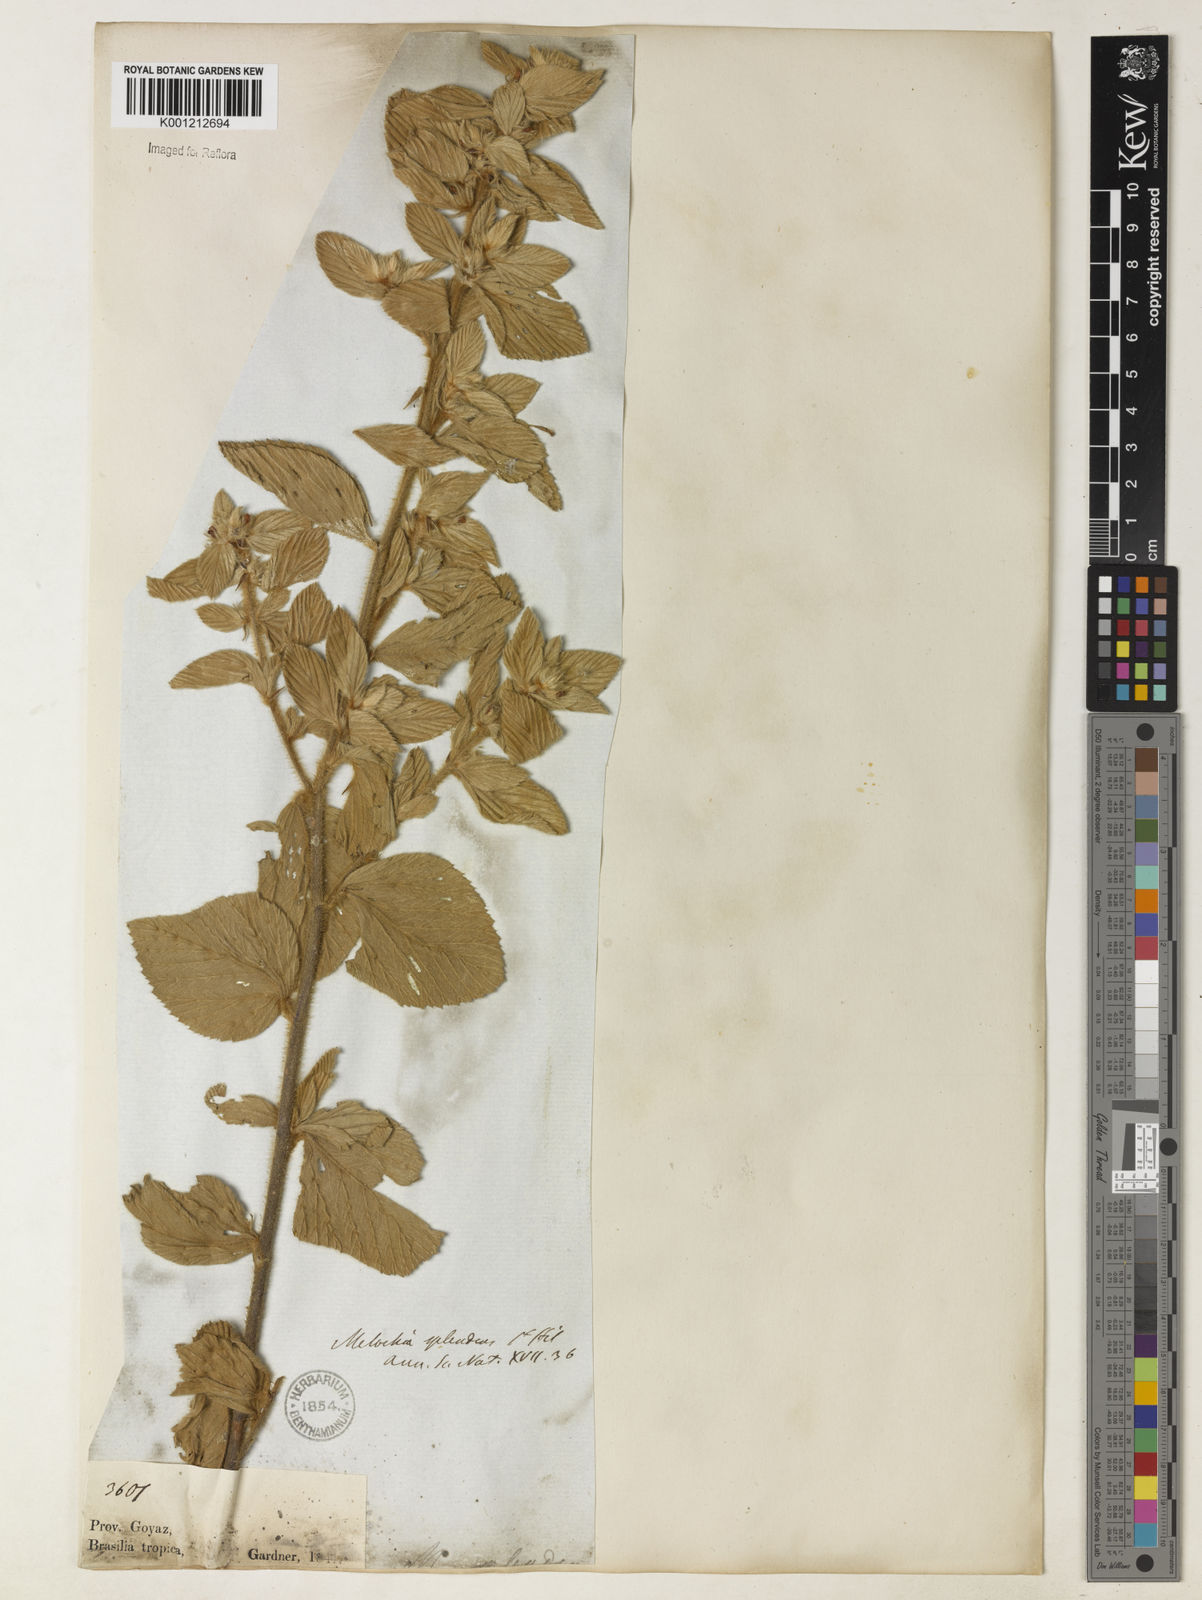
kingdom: Plantae
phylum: Tracheophyta
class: Magnoliopsida
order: Malvales
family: Malvaceae
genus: Melochia
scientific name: Melochia splendens
